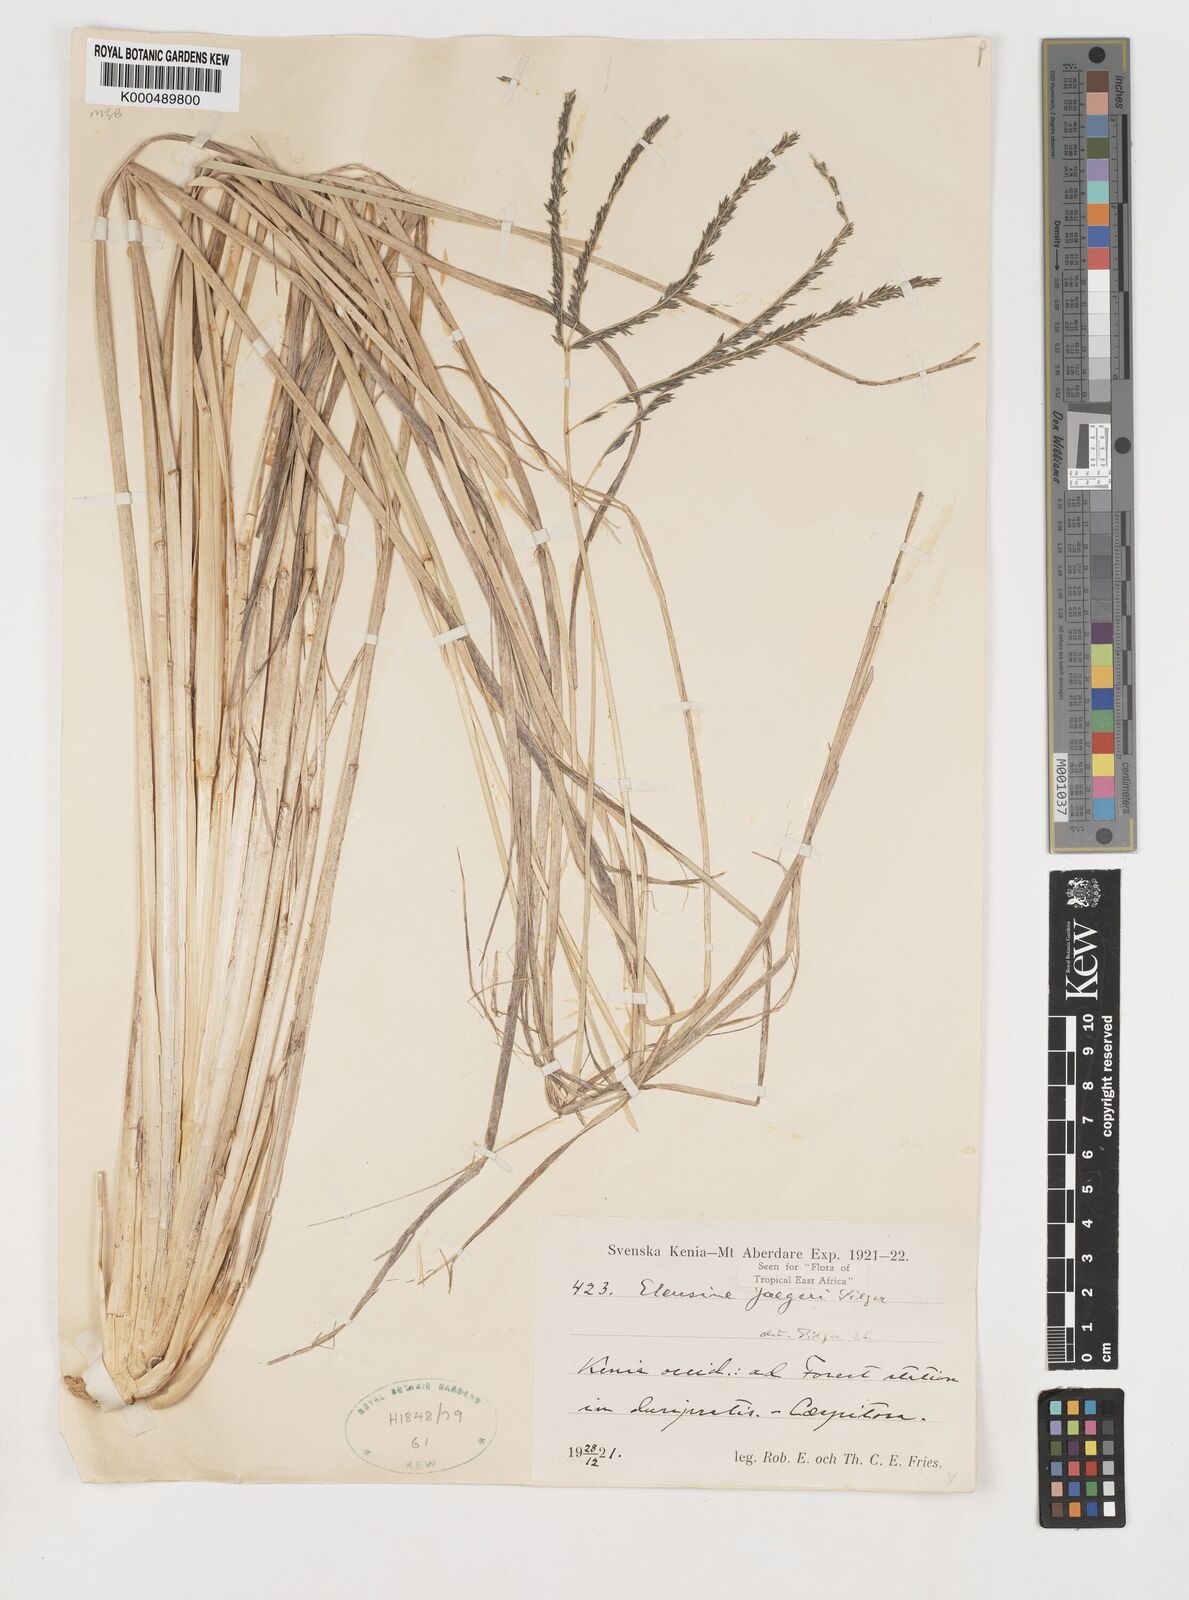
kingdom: Plantae
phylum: Tracheophyta
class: Liliopsida
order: Poales
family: Poaceae
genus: Eleusine
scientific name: Eleusine jaegeri
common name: Manyatta grass
